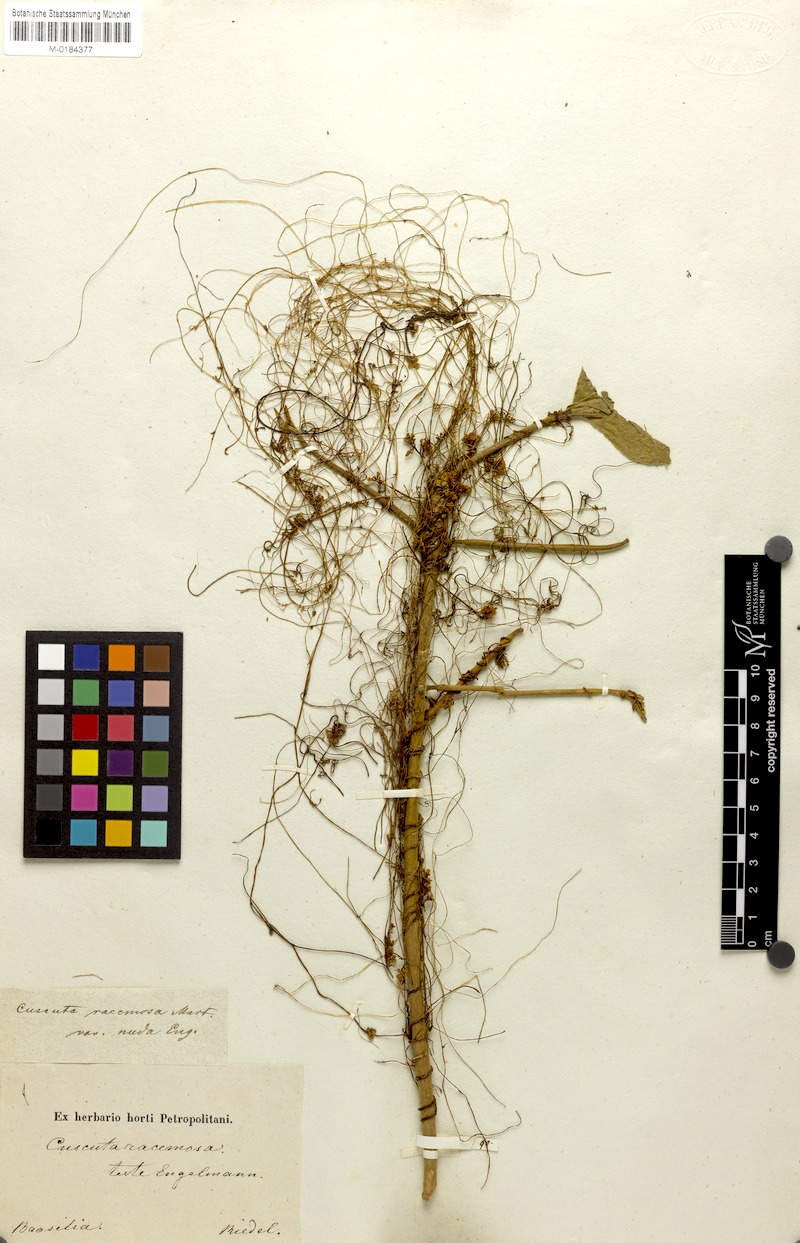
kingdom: Plantae
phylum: Tracheophyta
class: Magnoliopsida
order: Solanales
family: Convolvulaceae
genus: Cuscuta
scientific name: Cuscuta racemosa
